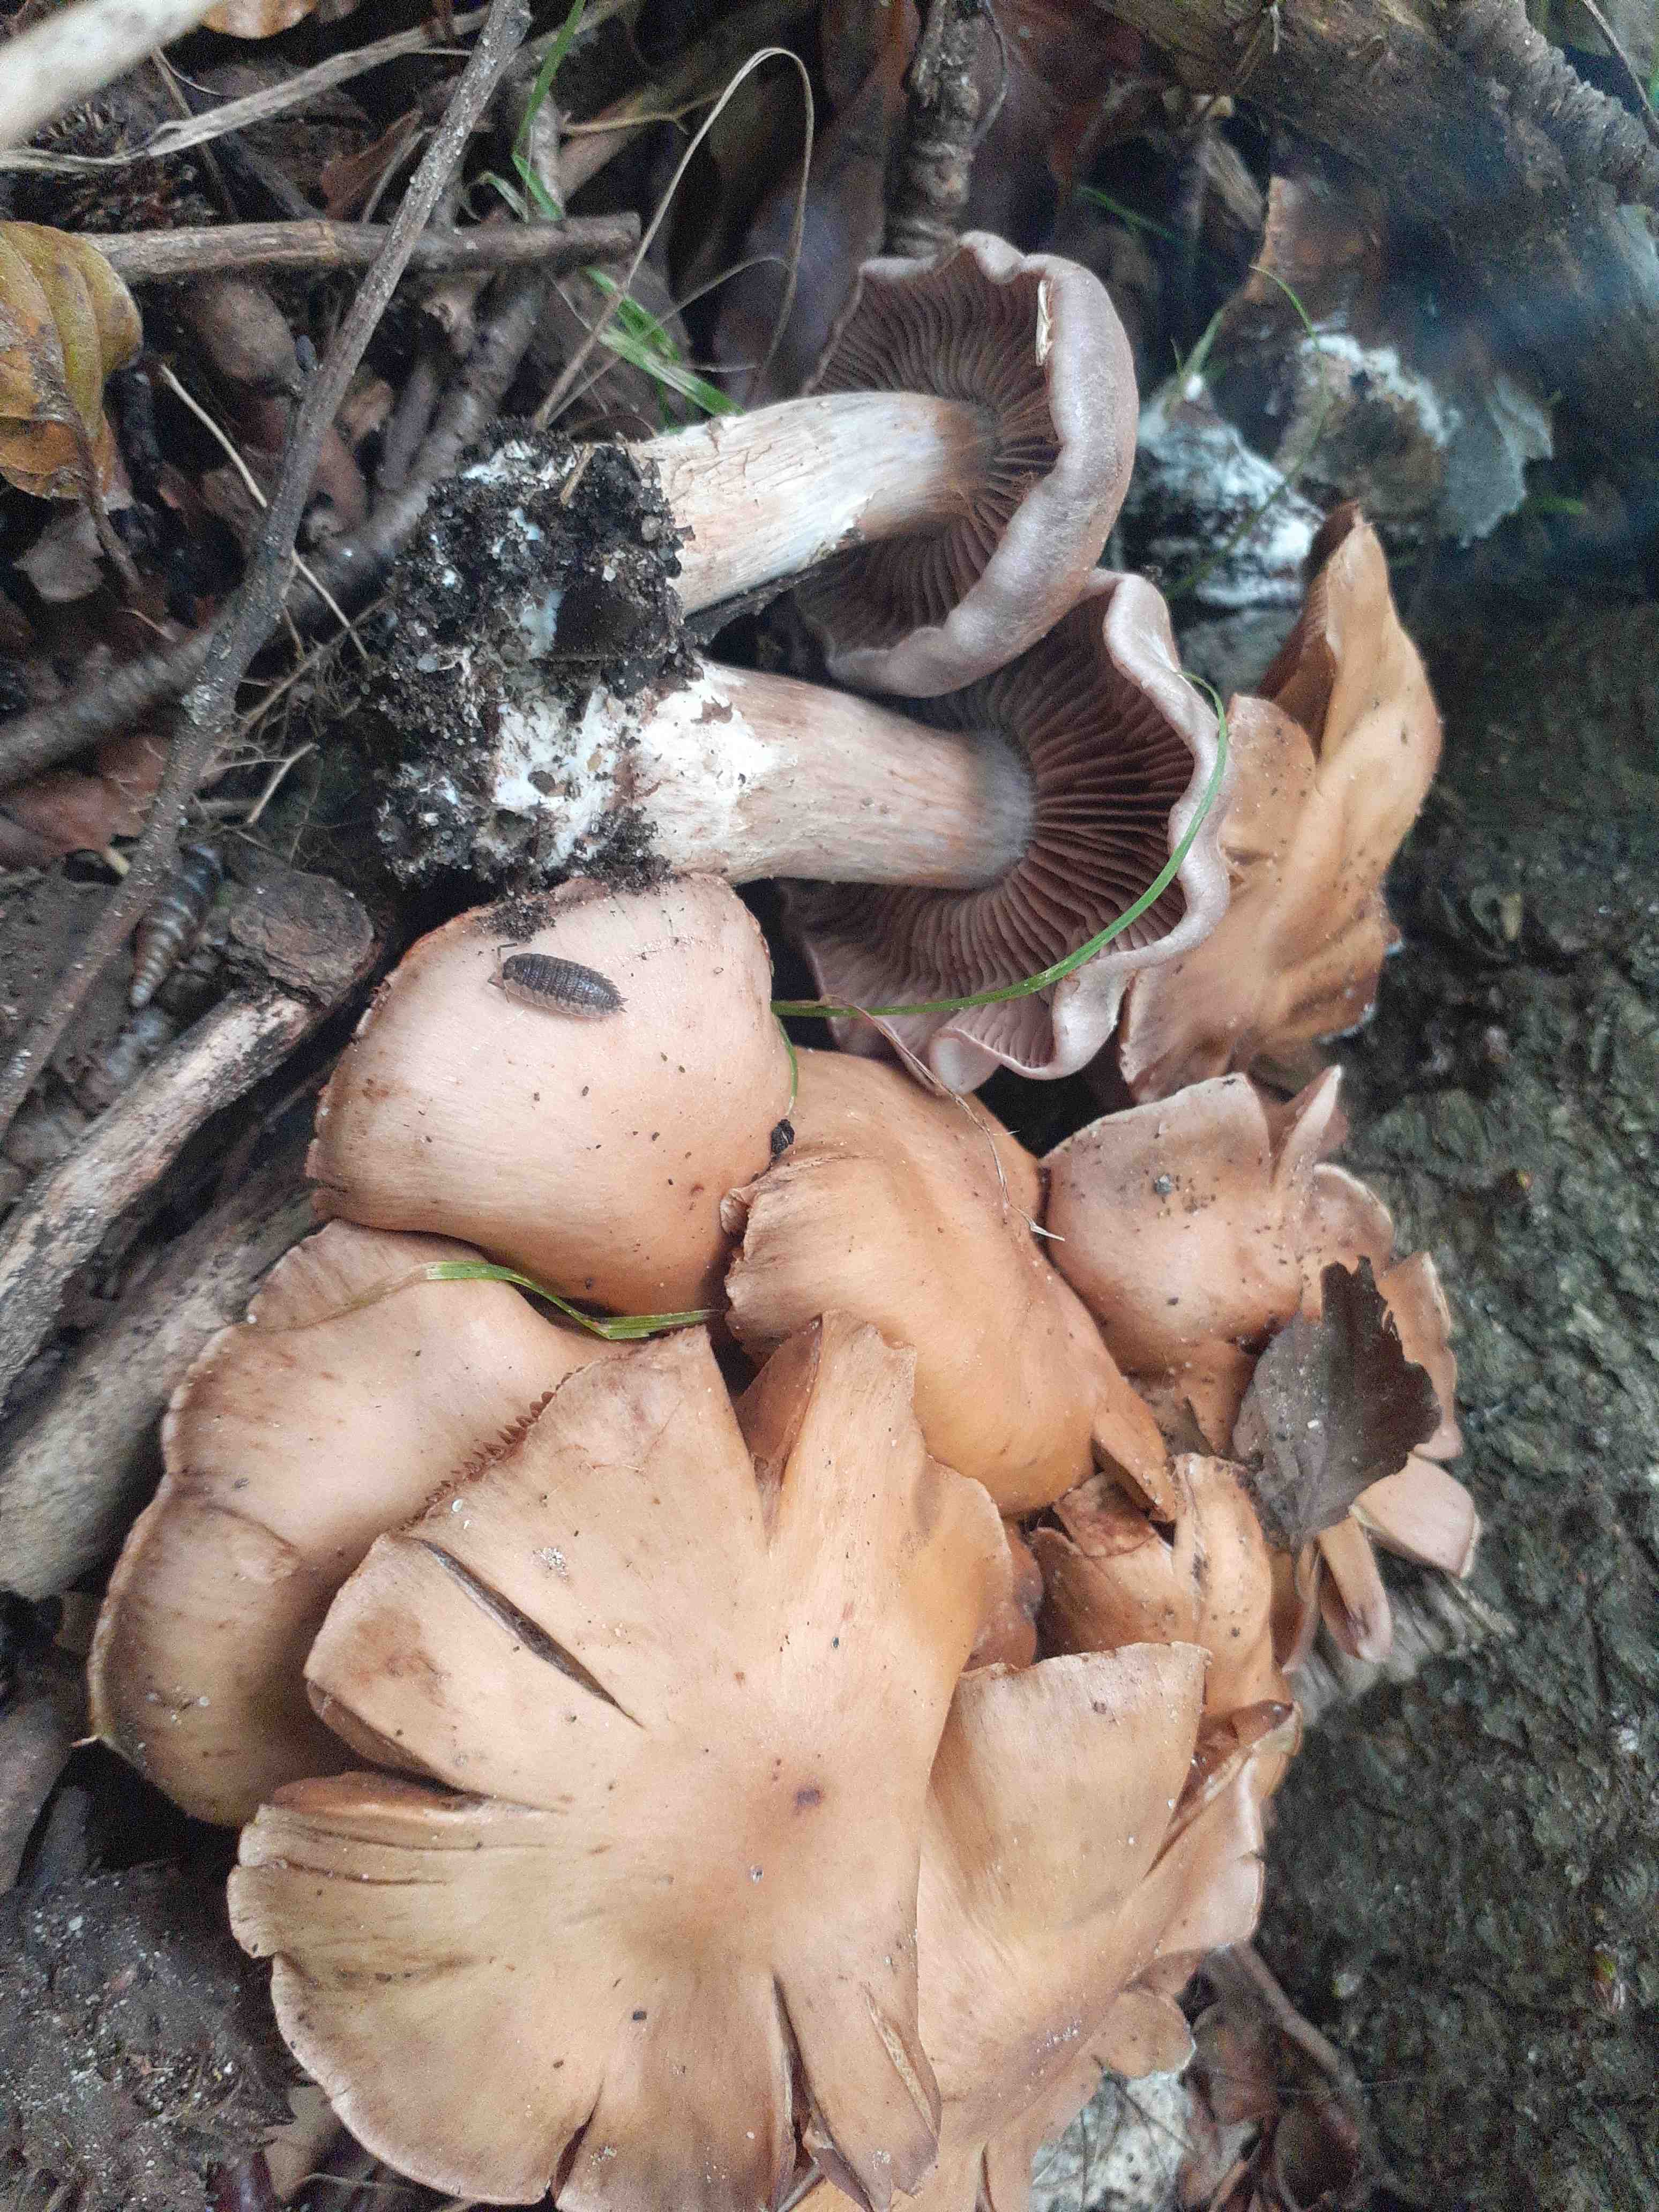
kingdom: Fungi
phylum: Basidiomycota
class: Agaricomycetes
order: Agaricales
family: Cortinariaceae
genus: Cortinarius
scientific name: Cortinarius lucorum
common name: aspe-slørhat
